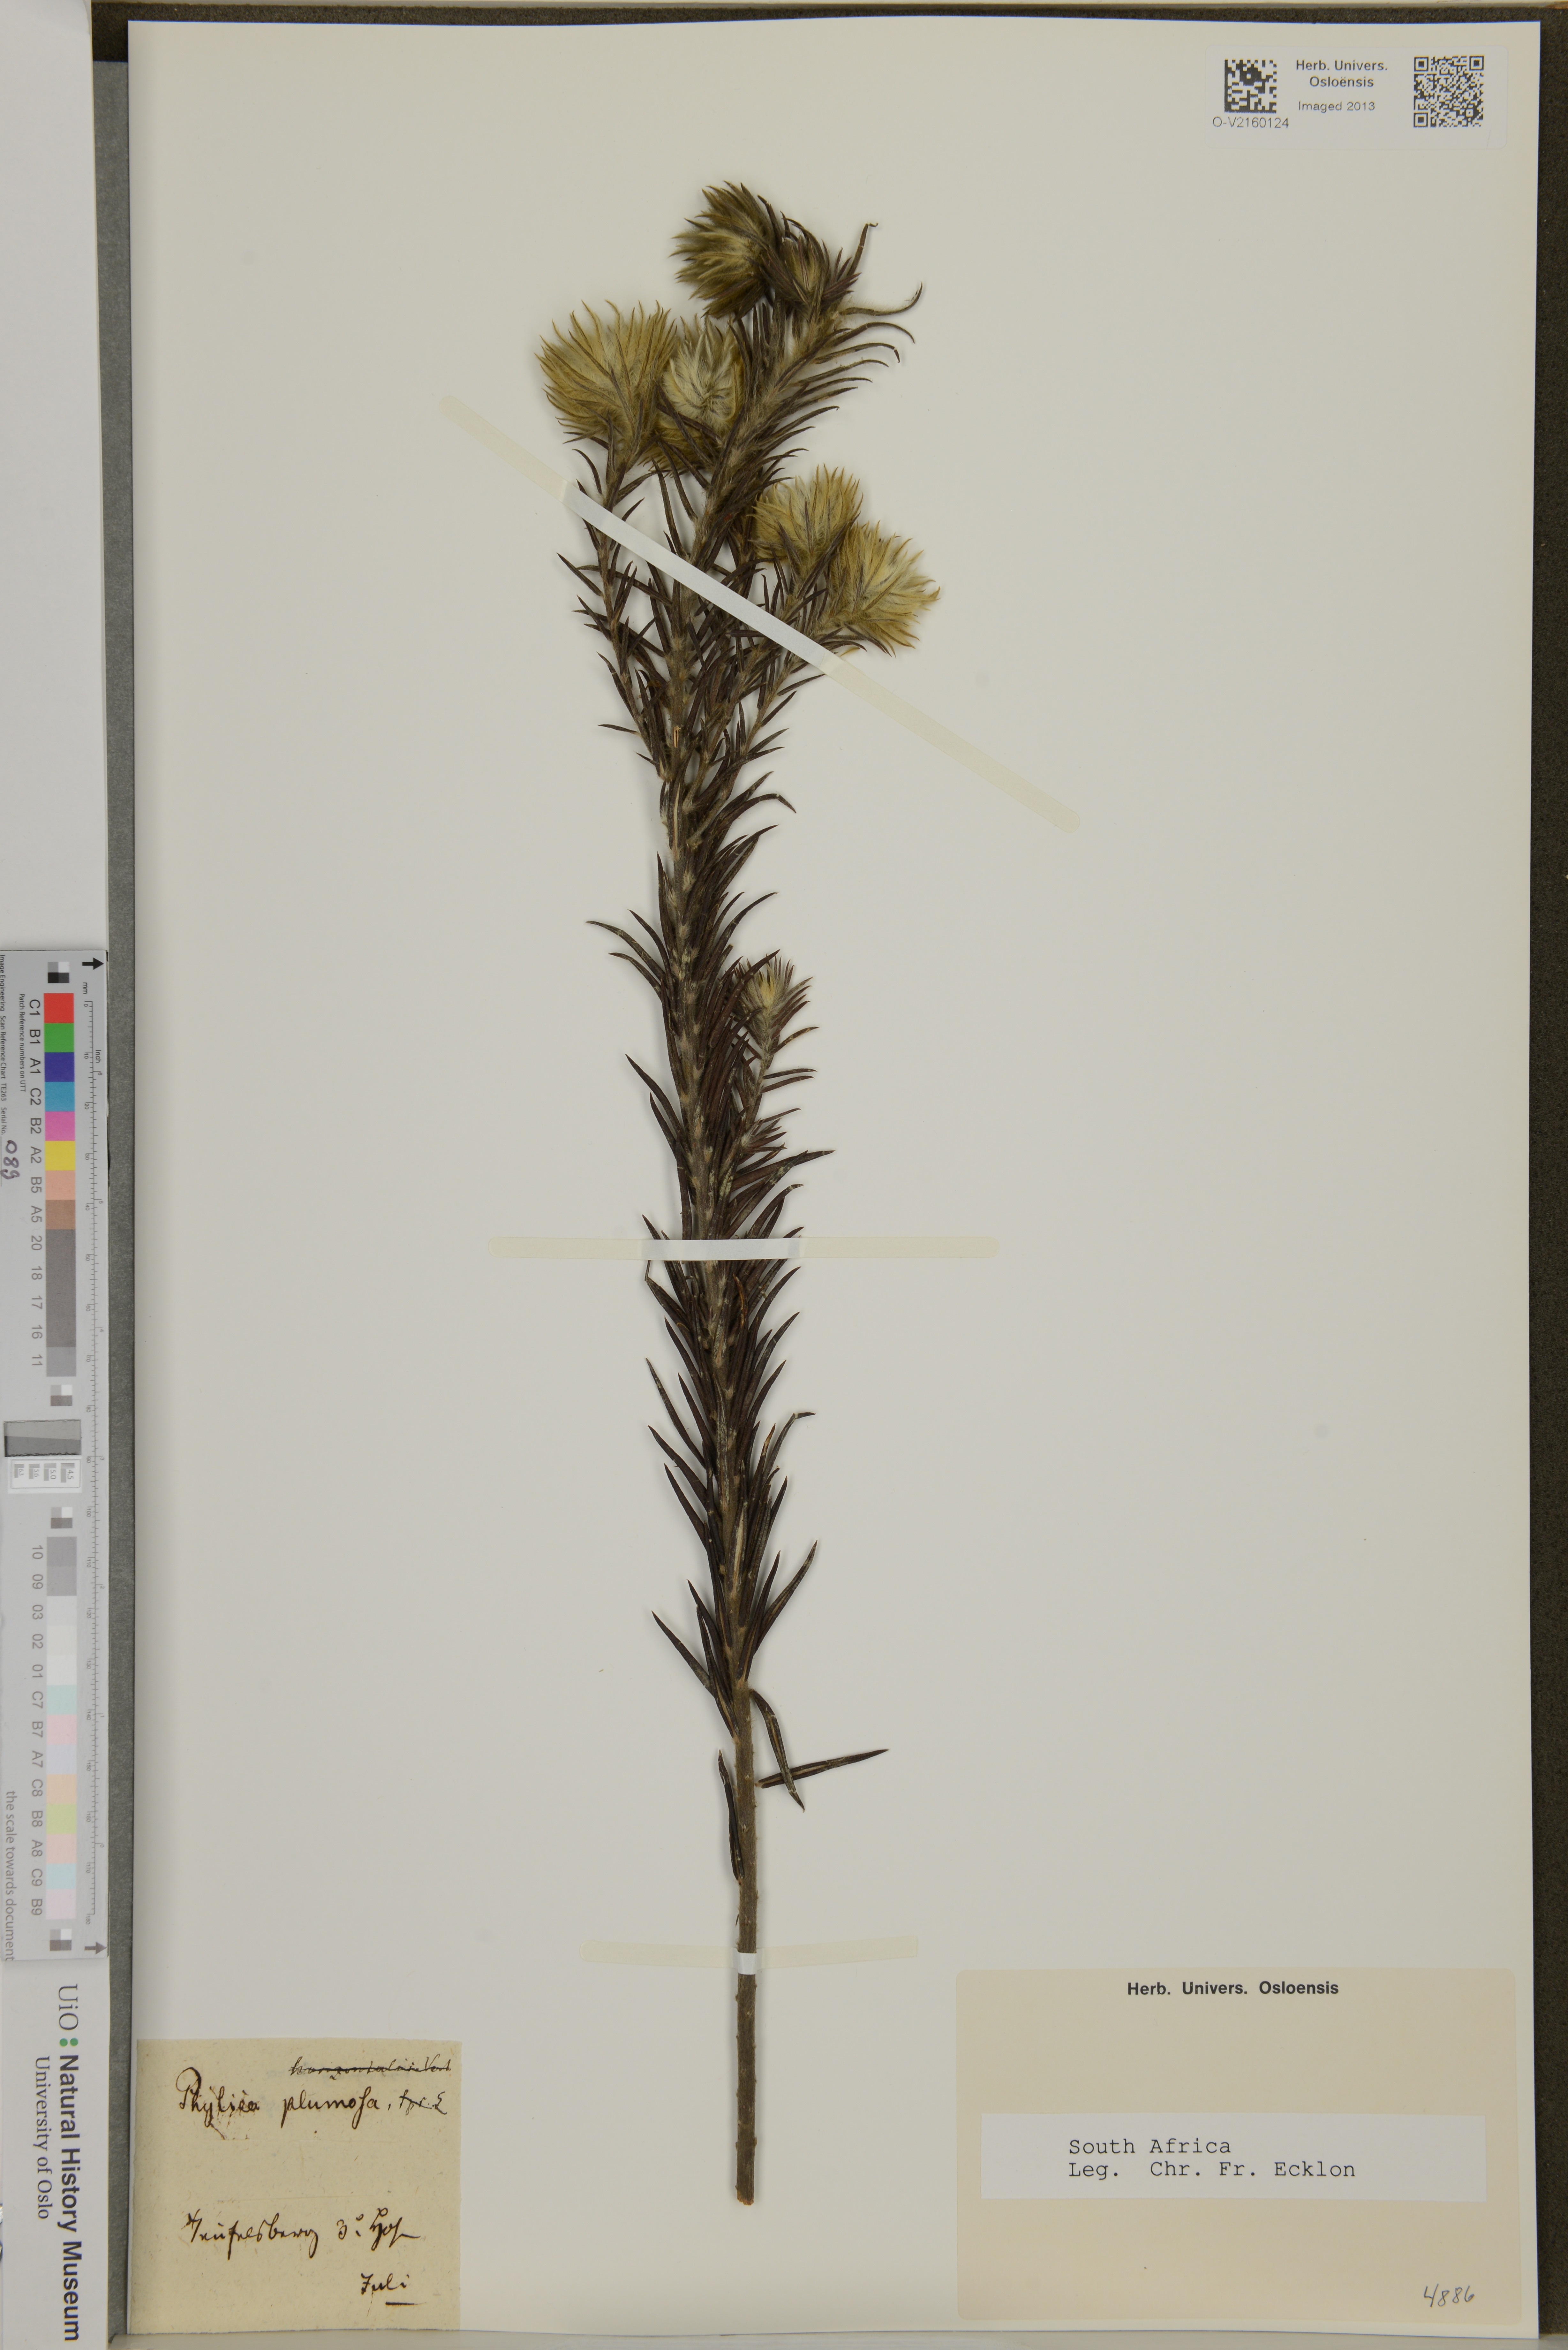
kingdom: Plantae
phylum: Tracheophyta
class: Magnoliopsida
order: Rosales
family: Rhamnaceae
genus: Phylica
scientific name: Phylica plumosa
